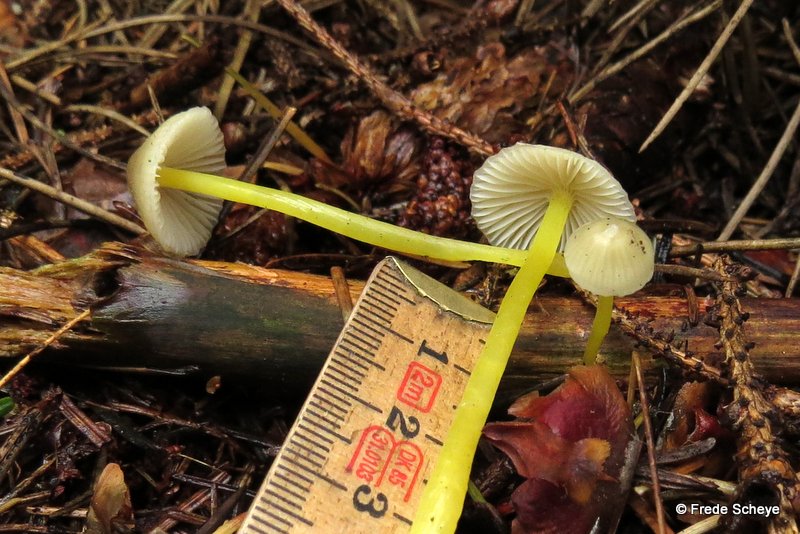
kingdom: Fungi
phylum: Basidiomycota
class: Agaricomycetes
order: Agaricales
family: Mycenaceae
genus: Mycena
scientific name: Mycena epipterygia
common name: gulstokket huesvamp
